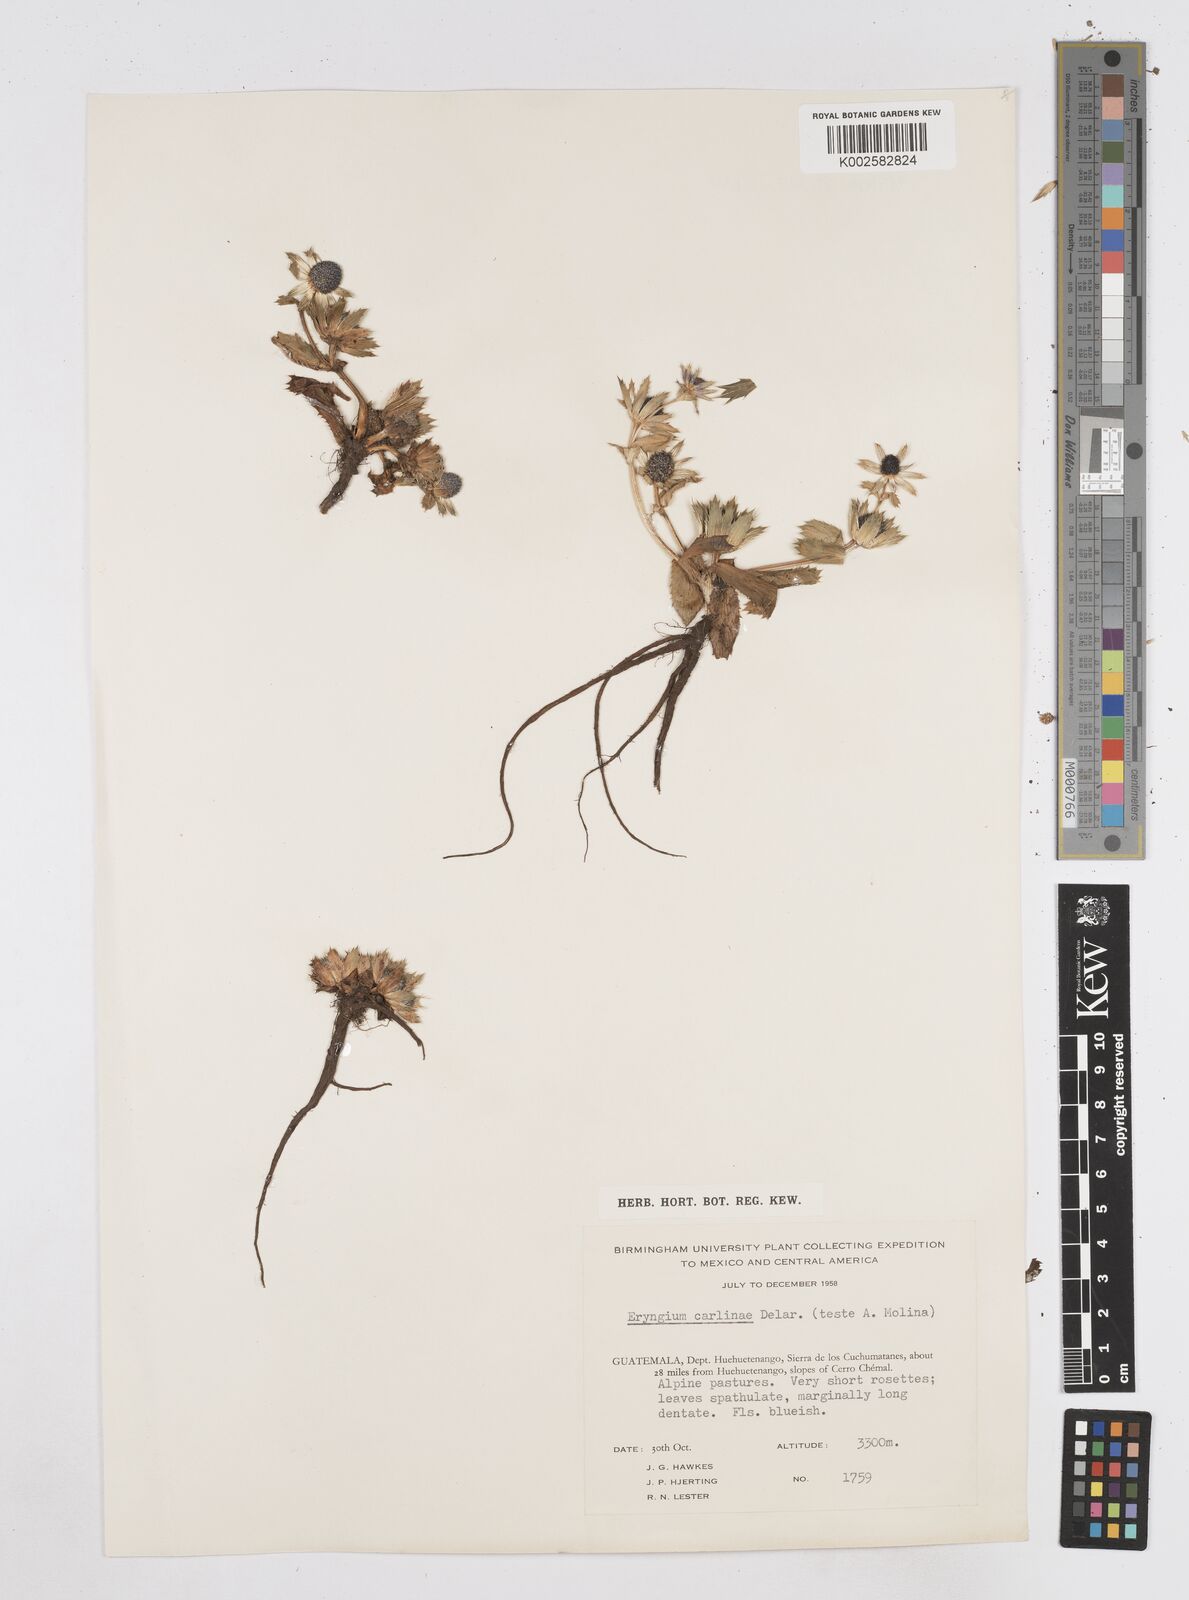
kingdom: Plantae
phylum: Tracheophyta
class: Magnoliopsida
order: Apiales
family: Apiaceae
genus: Eryngium
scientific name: Eryngium carlinae
